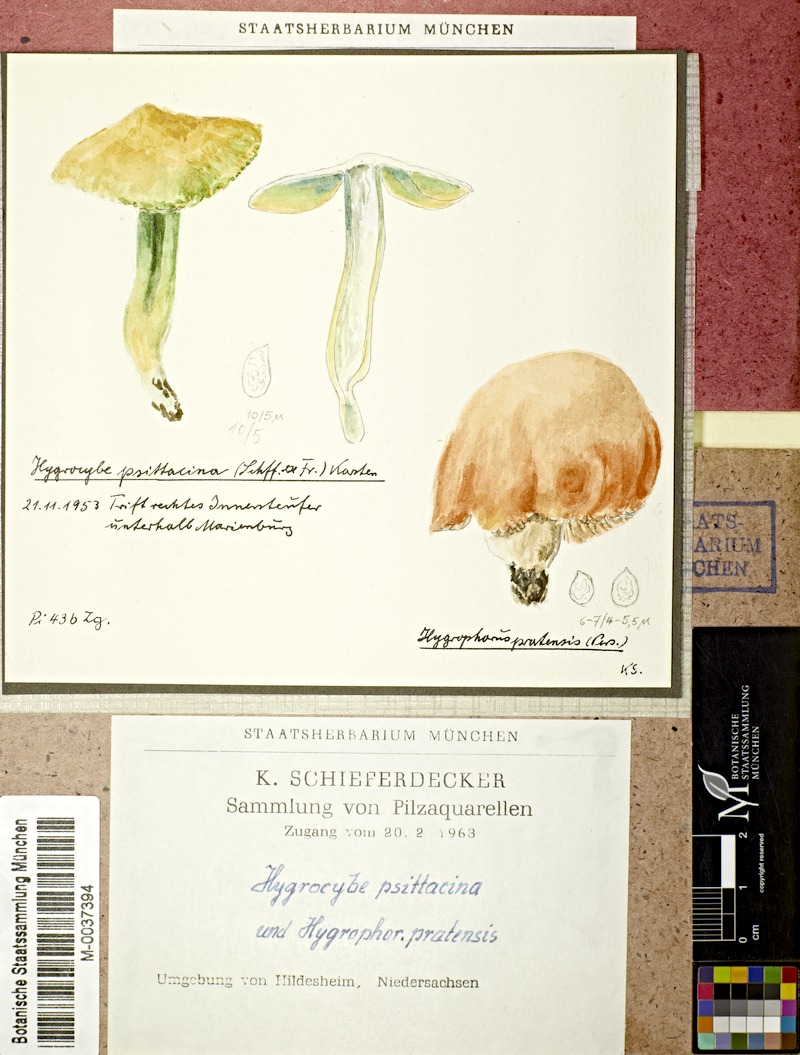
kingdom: Fungi
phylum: Basidiomycota
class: Agaricomycetes
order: Agaricales
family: Hygrophoraceae
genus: Gliophorus
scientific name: Gliophorus psittacinus
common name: Parrot wax-cap
